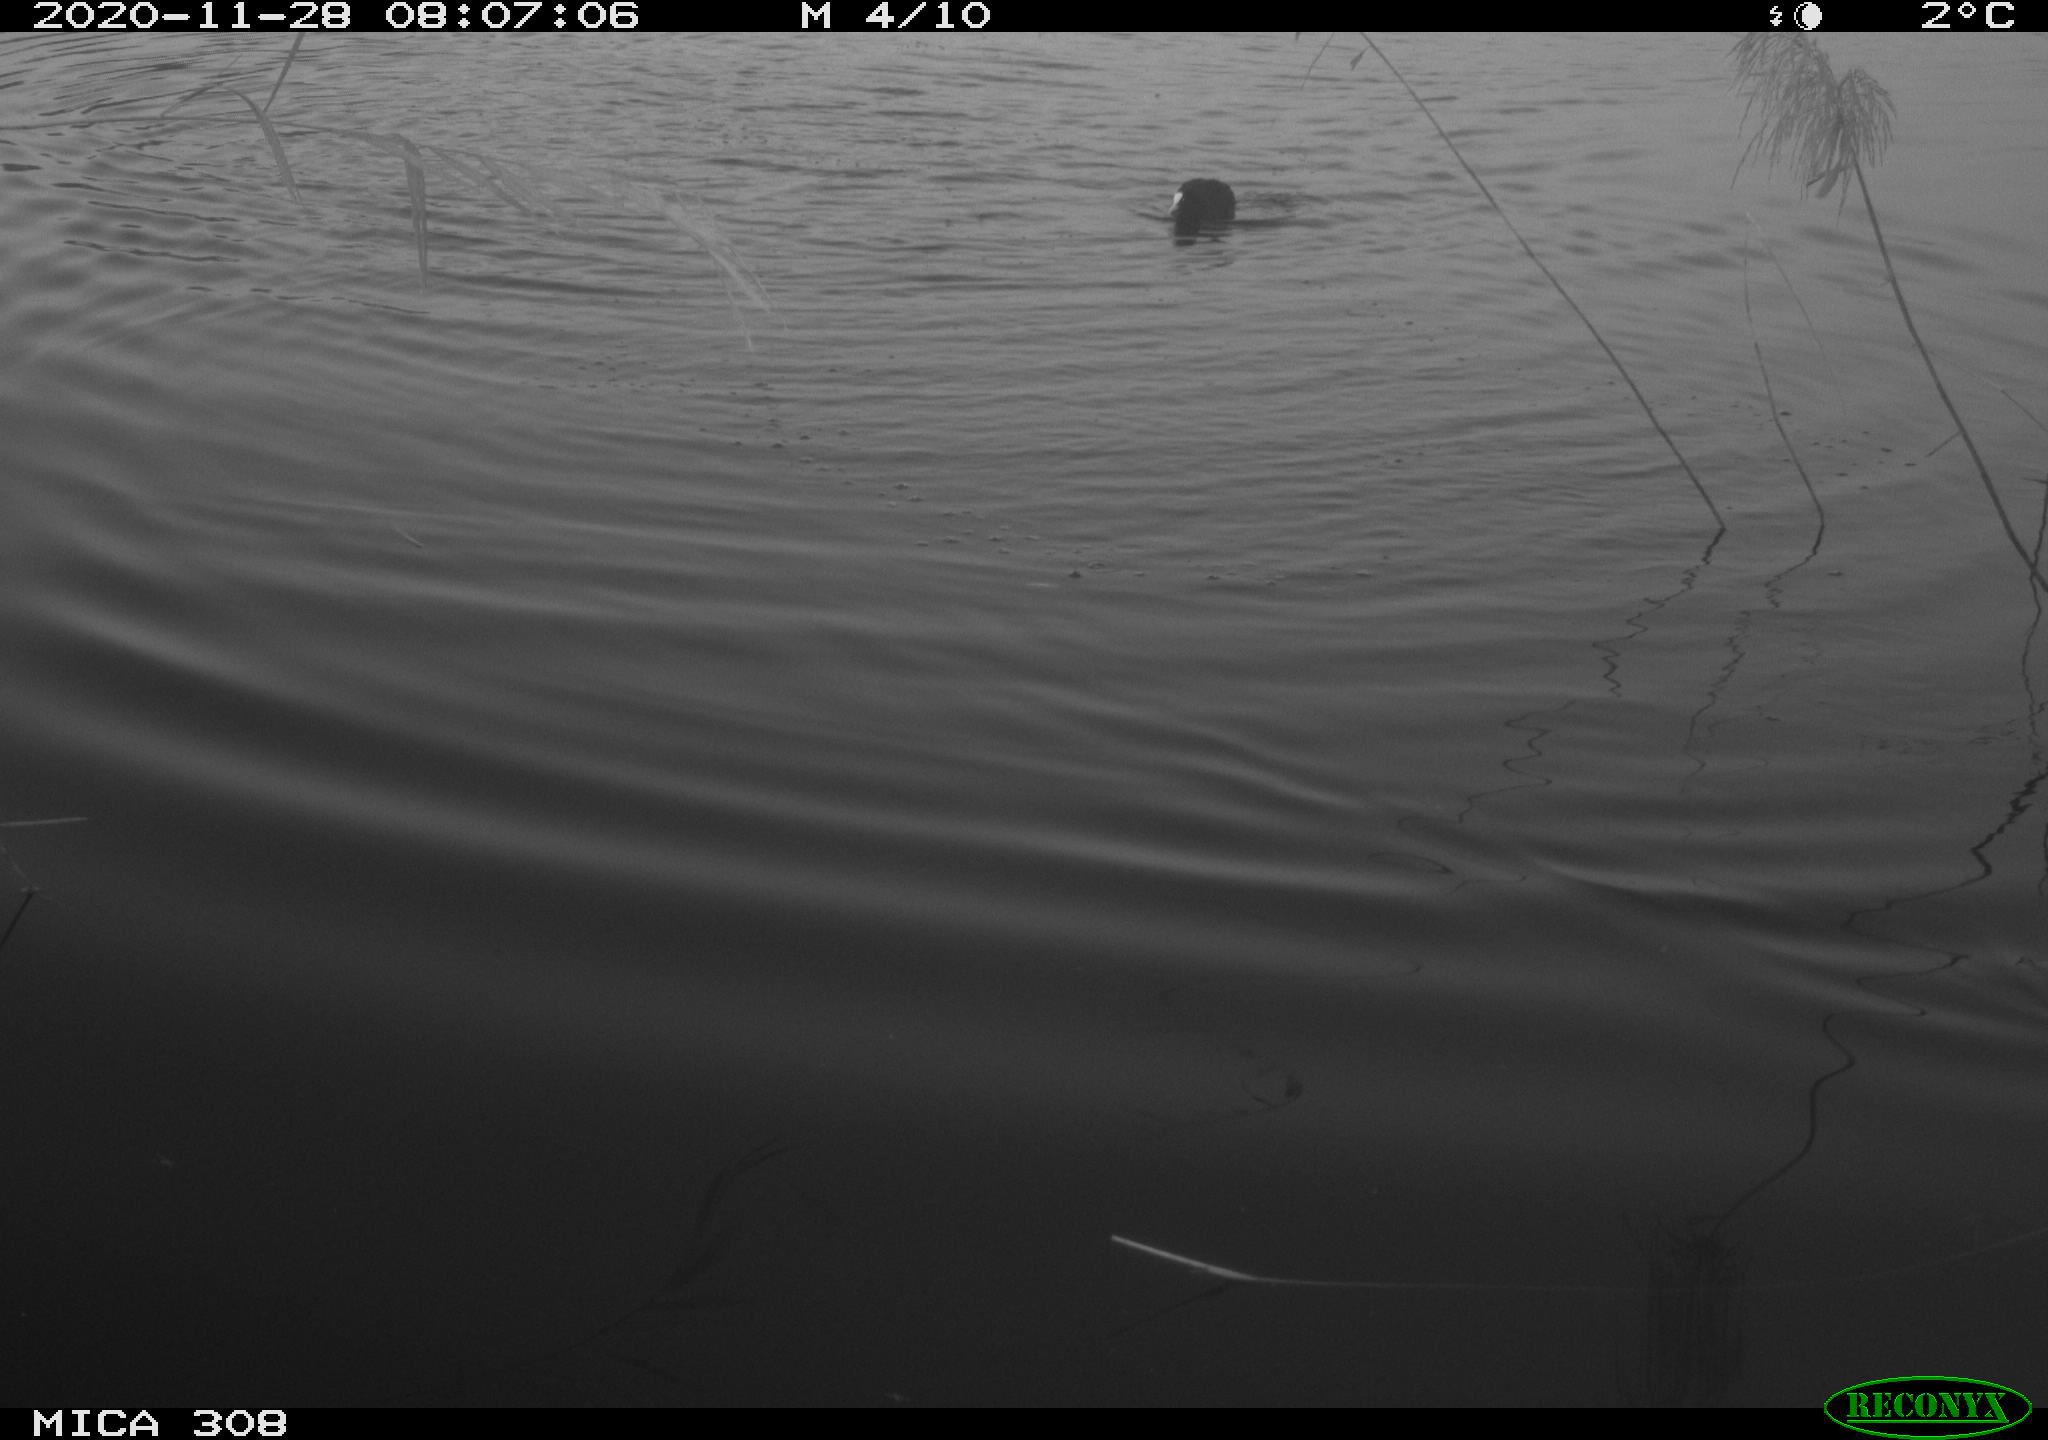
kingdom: Animalia
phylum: Chordata
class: Aves
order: Gruiformes
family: Rallidae
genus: Fulica
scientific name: Fulica atra
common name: Eurasian coot
